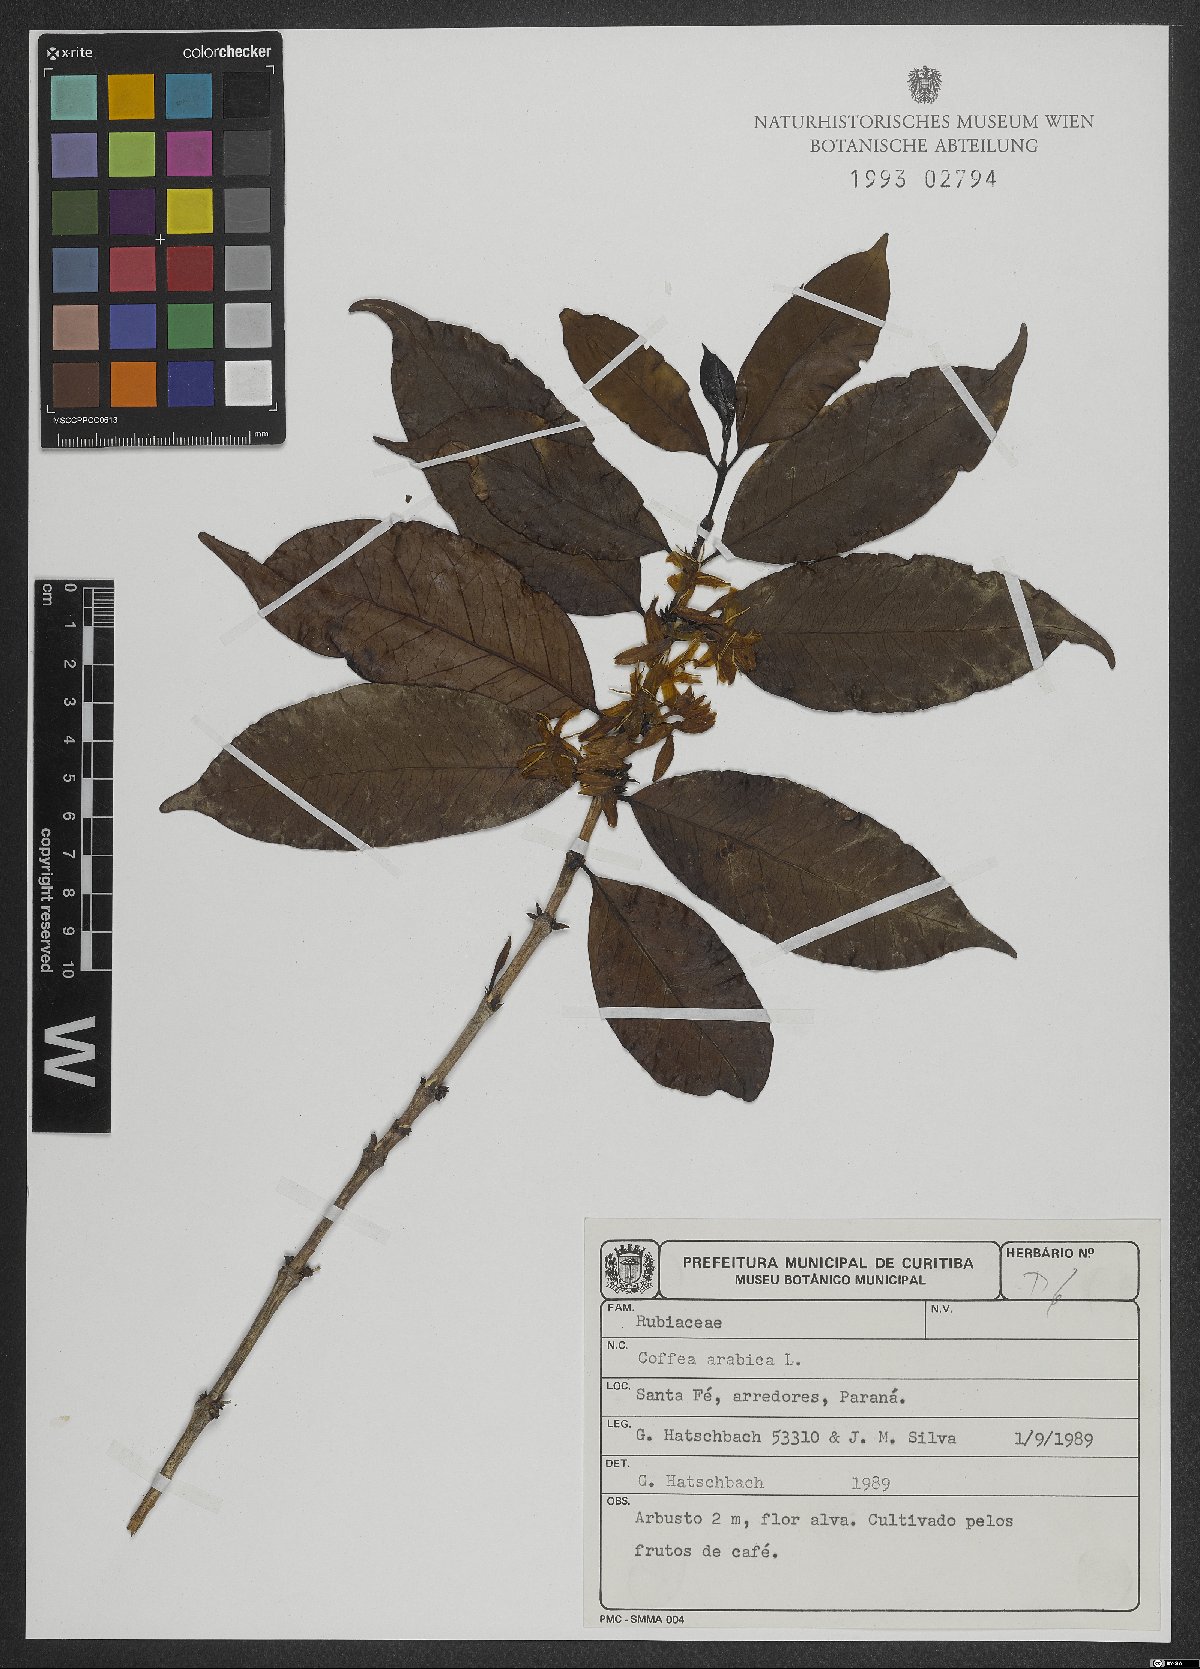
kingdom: Plantae
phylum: Tracheophyta
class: Magnoliopsida
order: Gentianales
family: Rubiaceae
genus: Coffea
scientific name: Coffea arabica
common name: Coffee
